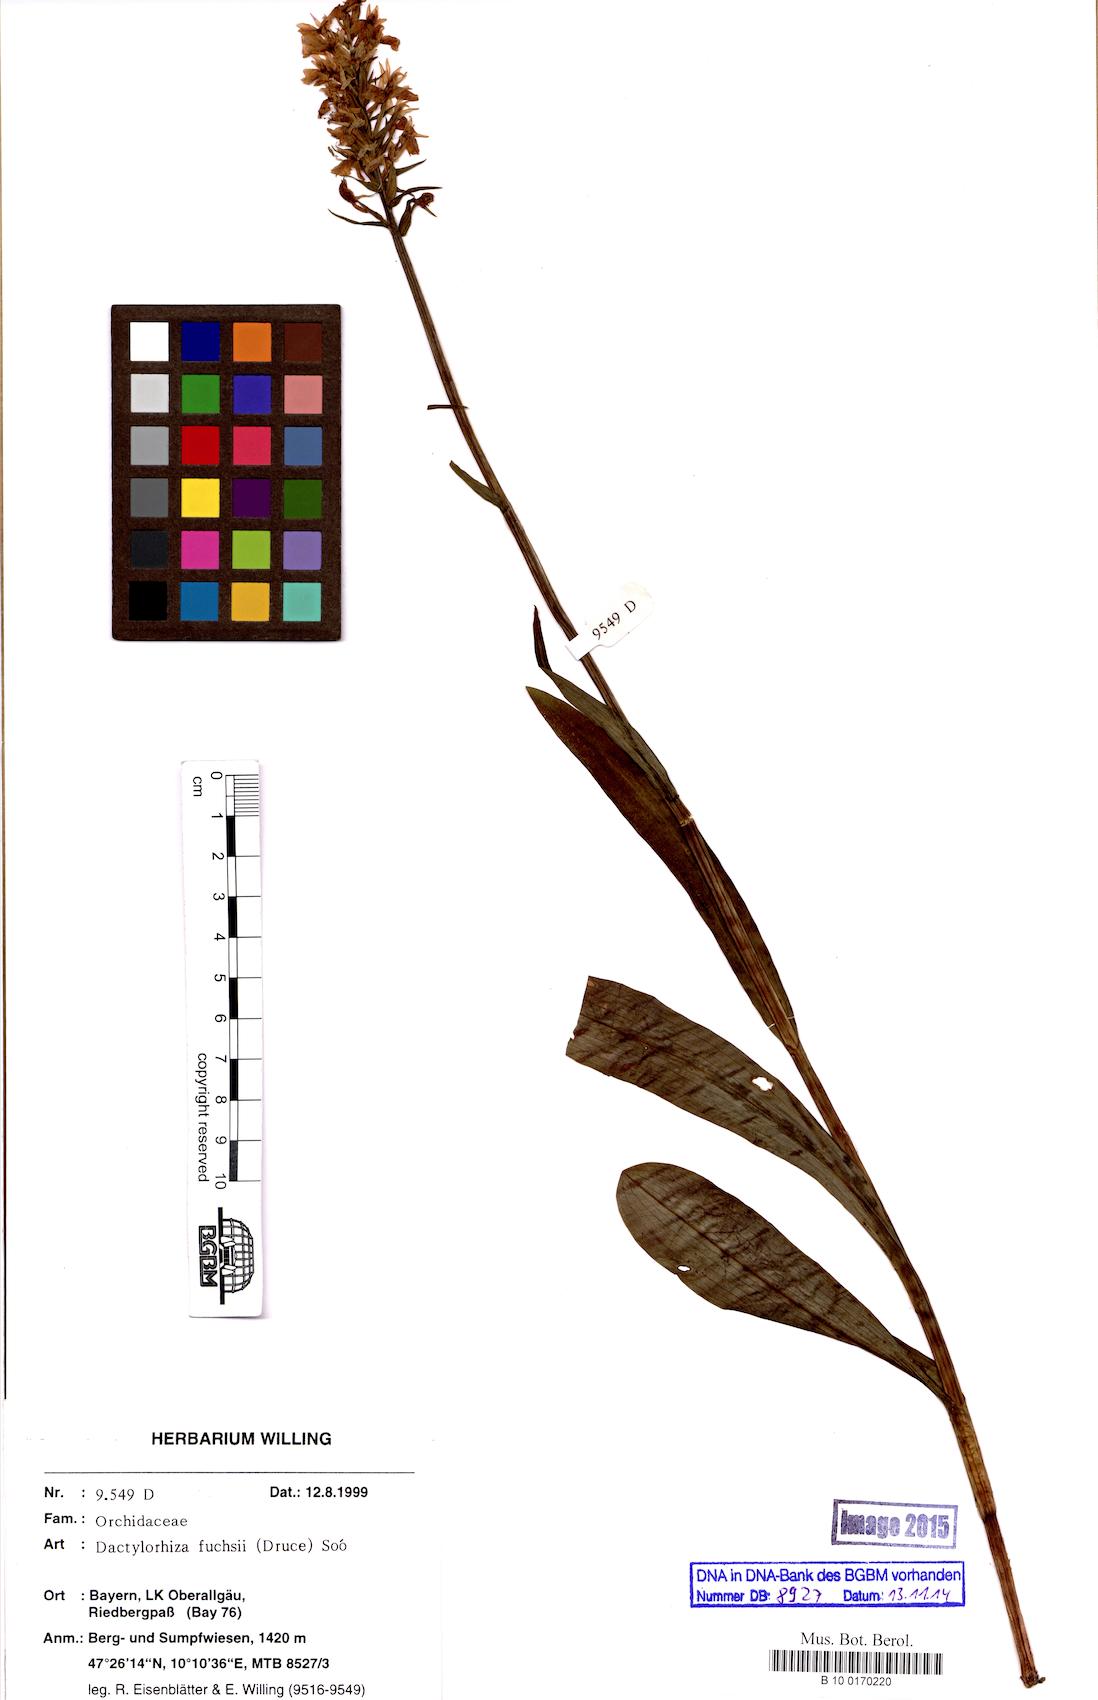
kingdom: Plantae
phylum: Tracheophyta
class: Liliopsida
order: Asparagales
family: Orchidaceae
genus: Dactylorhiza
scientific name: Dactylorhiza maculata
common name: Heath spotted-orchid
